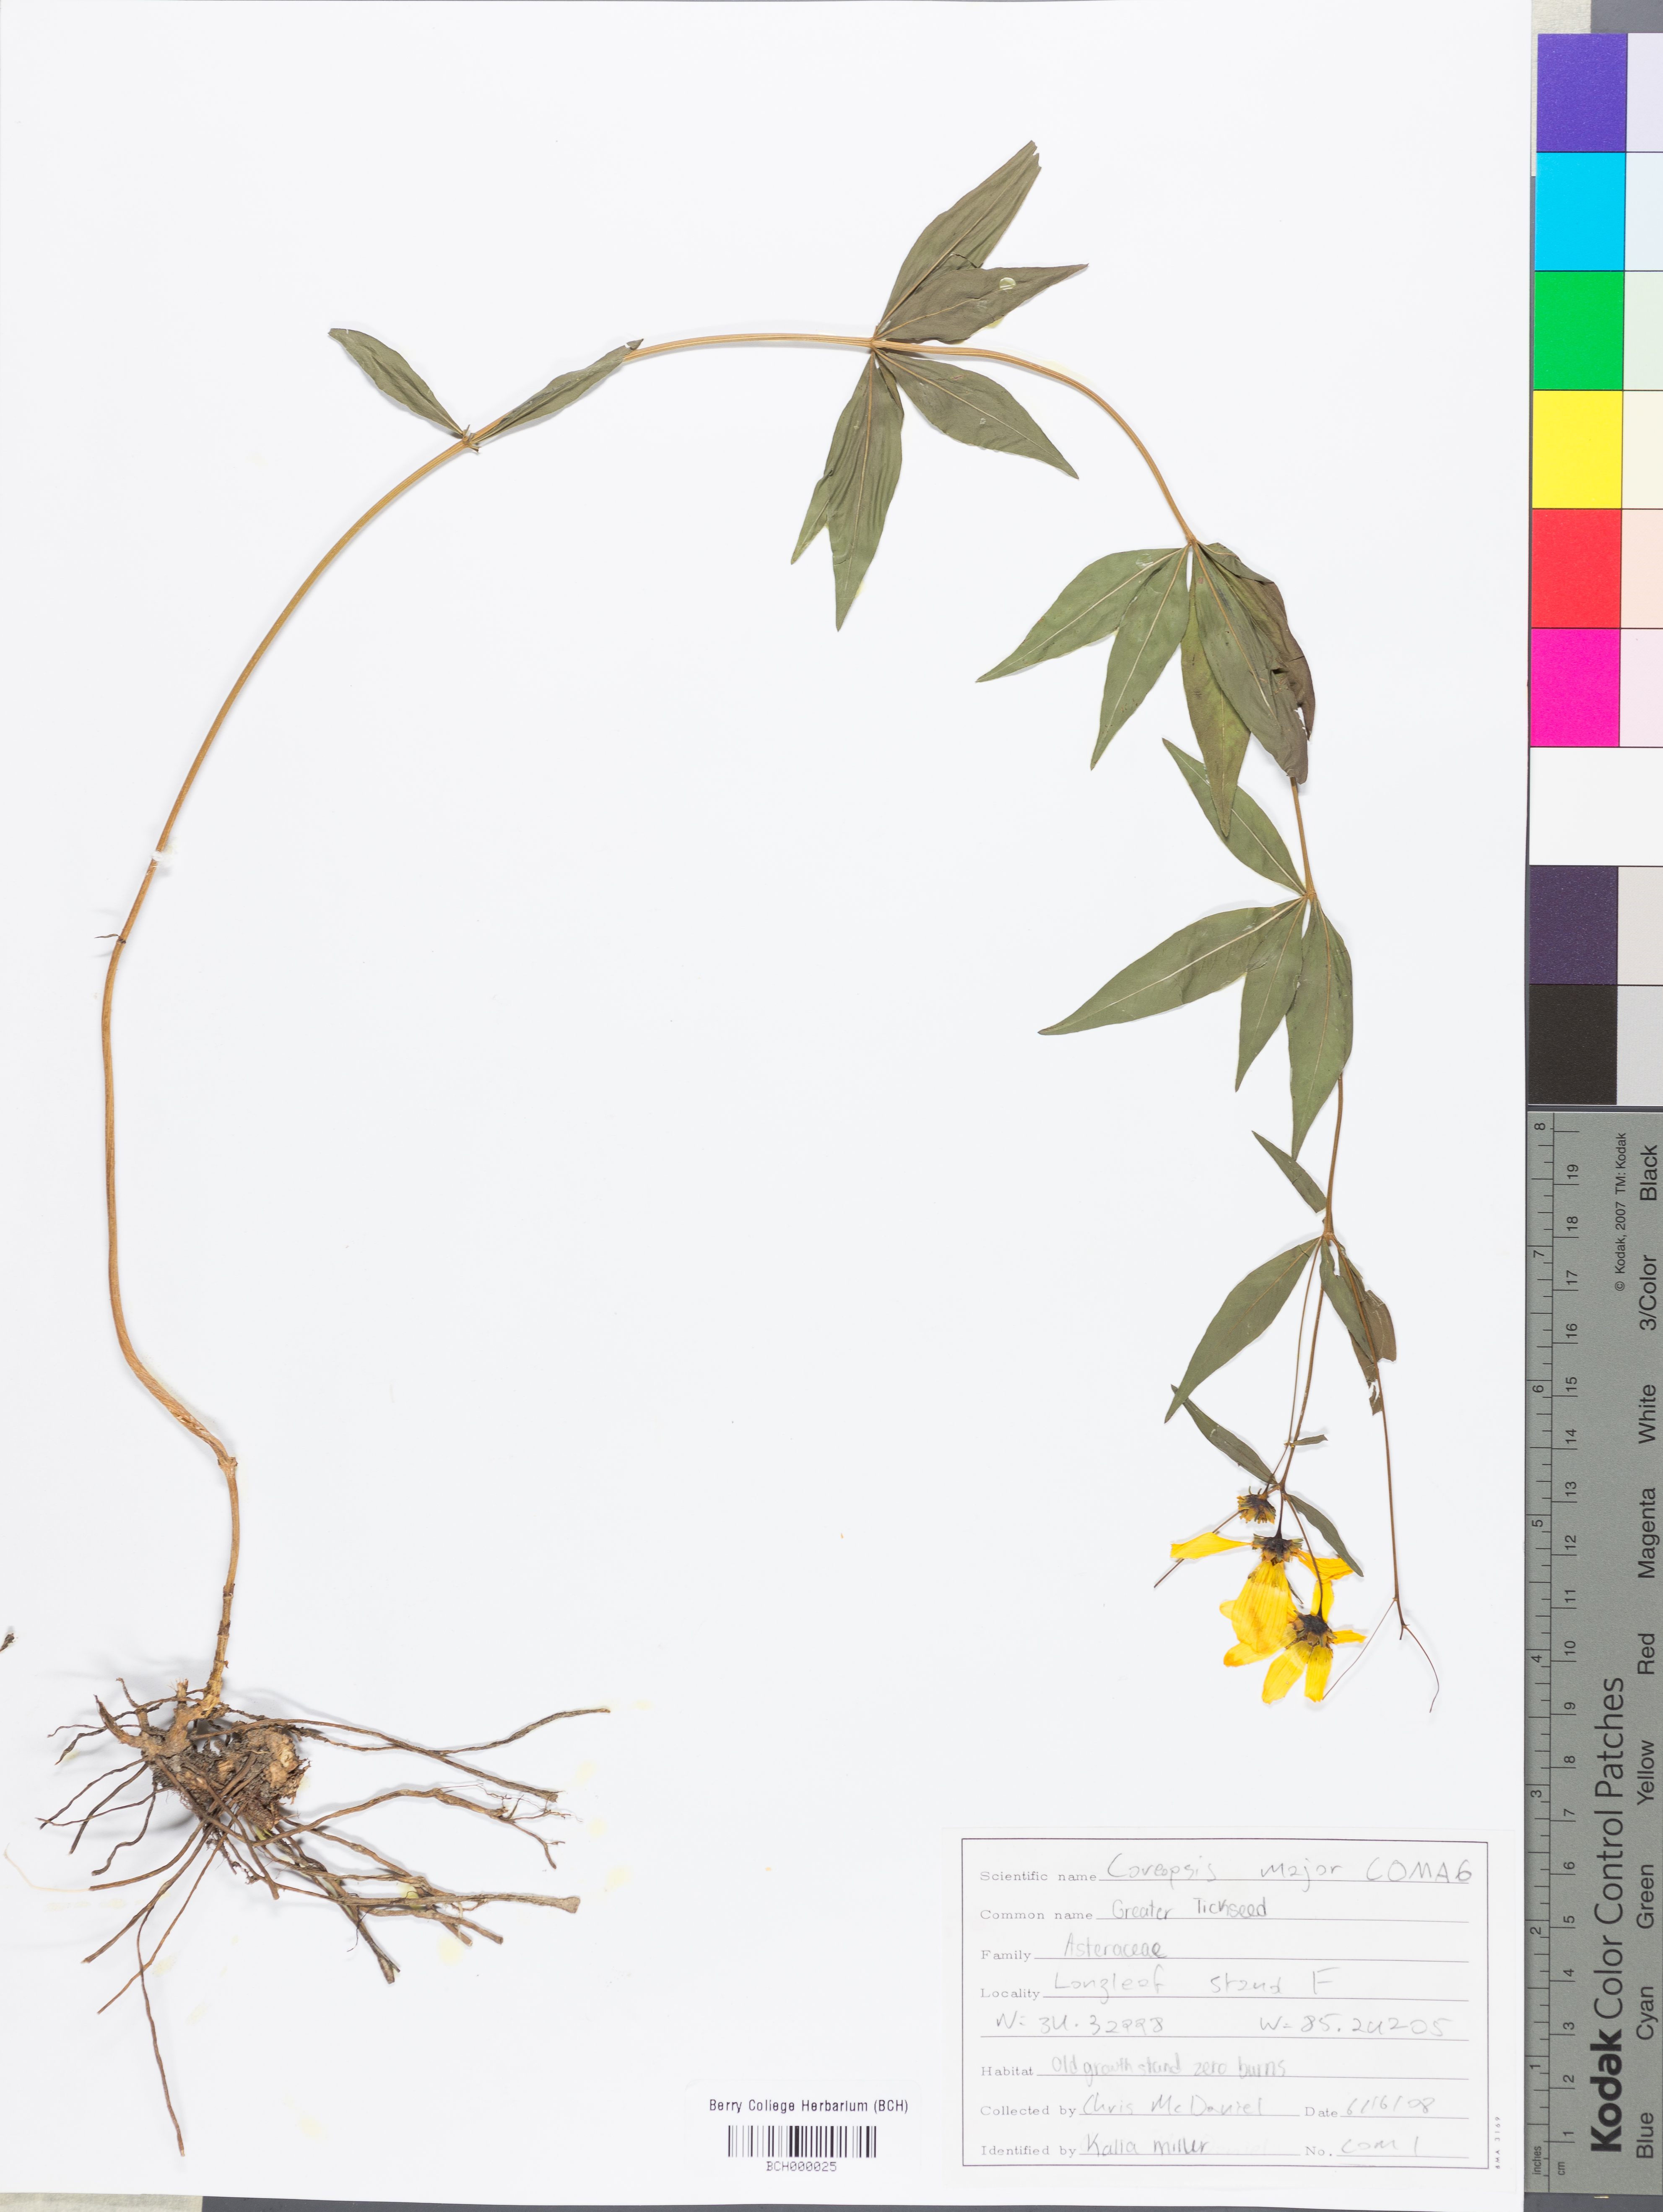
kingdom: Plantae
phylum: Tracheophyta
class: Magnoliopsida
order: Asterales
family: Asteraceae
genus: Coreopsis
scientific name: Coreopsis major
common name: Forest tickseed
